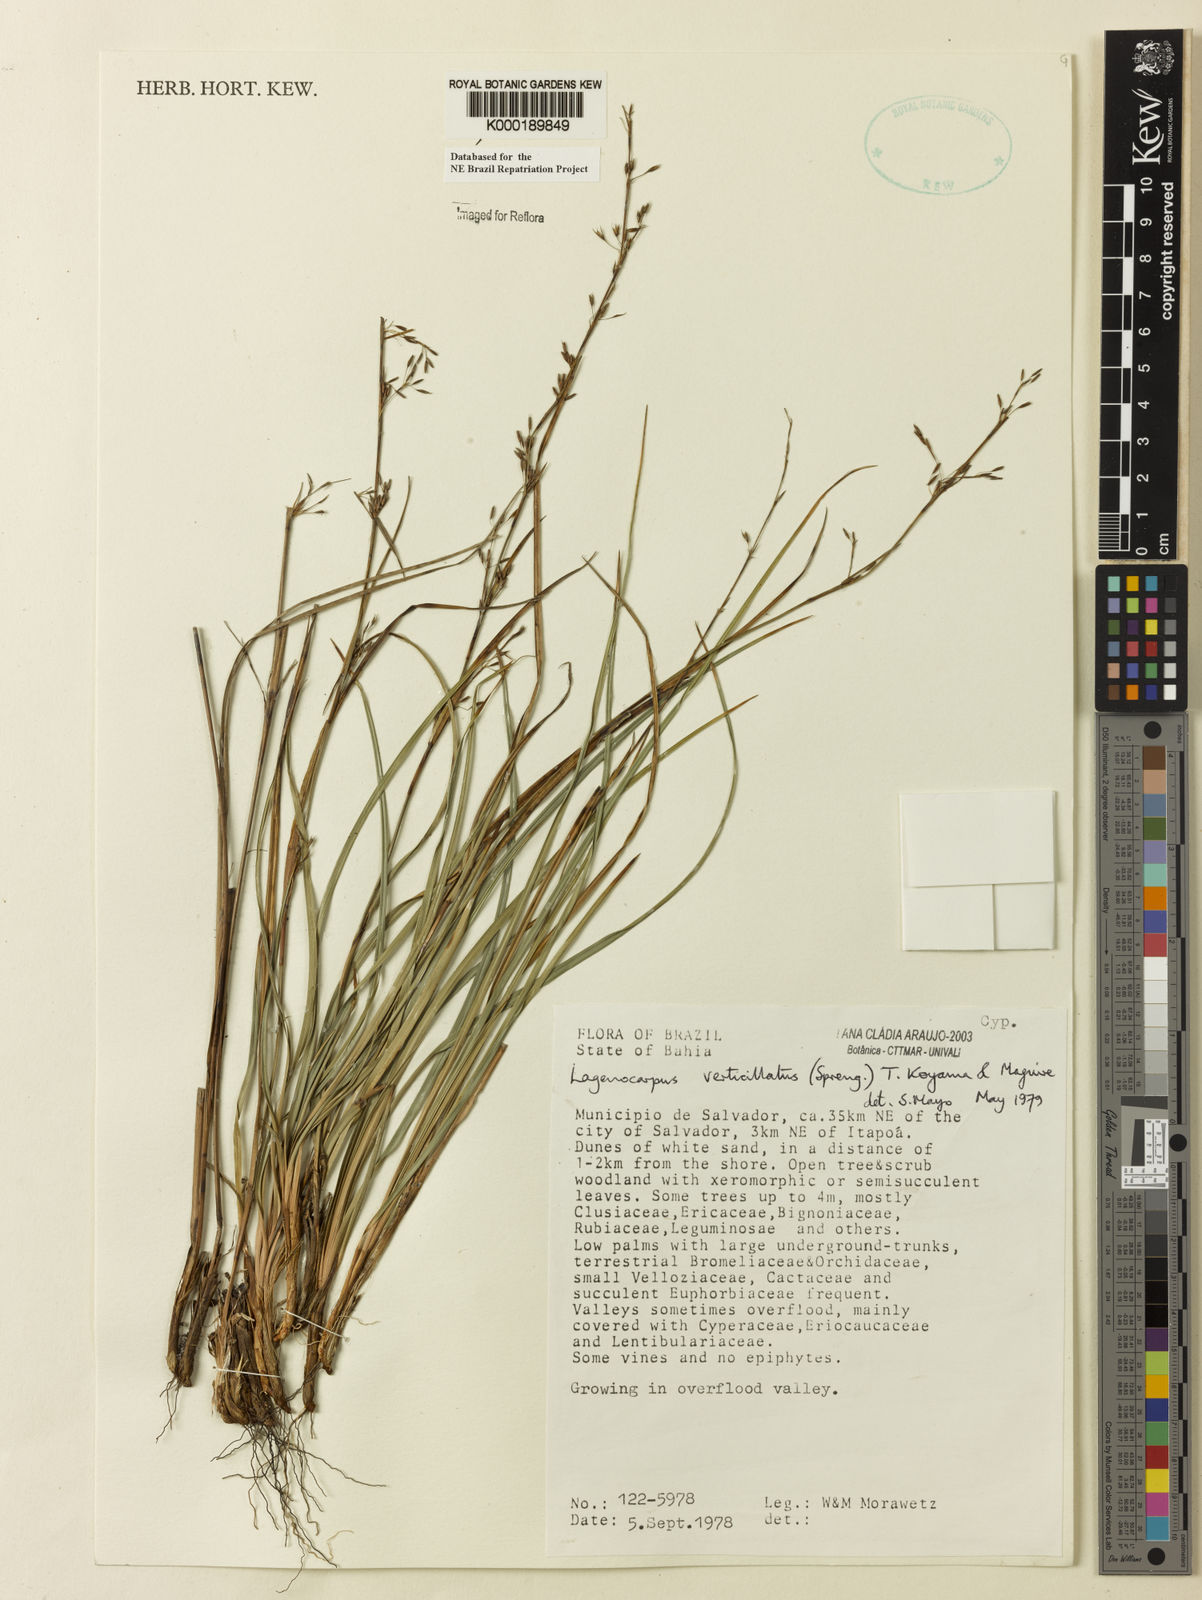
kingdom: Plantae
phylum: Tracheophyta
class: Liliopsida
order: Poales
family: Cyperaceae
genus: Cryptangium
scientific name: Cryptangium verticillatum
